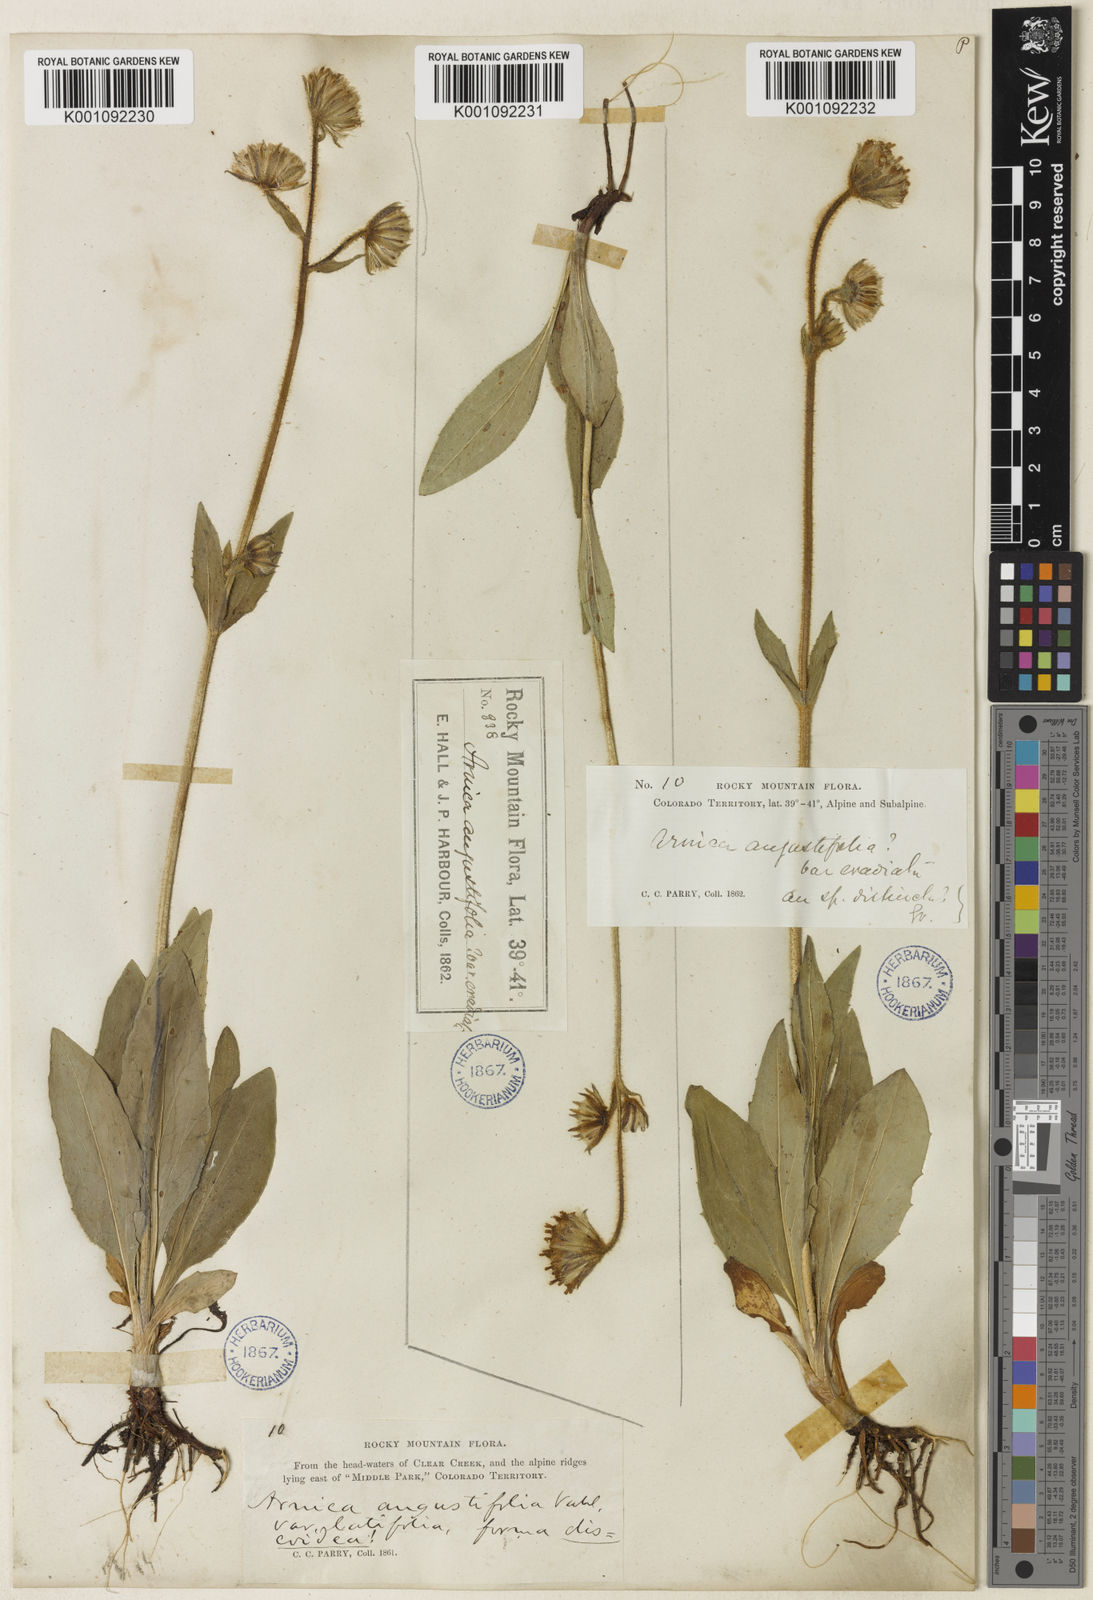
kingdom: Plantae
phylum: Tracheophyta
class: Magnoliopsida
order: Asterales
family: Asteraceae
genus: Arnica
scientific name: Arnica parryi
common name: Parry's arnica
